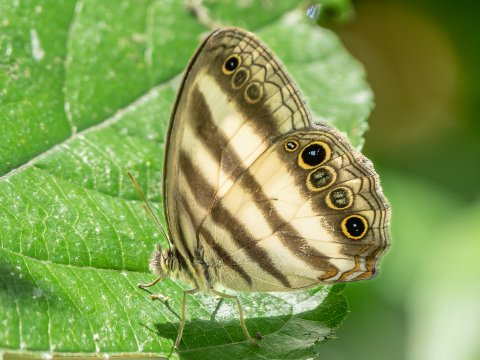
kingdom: Animalia
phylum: Arthropoda
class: Insecta
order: Lepidoptera
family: Nymphalidae
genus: Pareuptychia
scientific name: Pareuptychia hesione
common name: White Satyr
